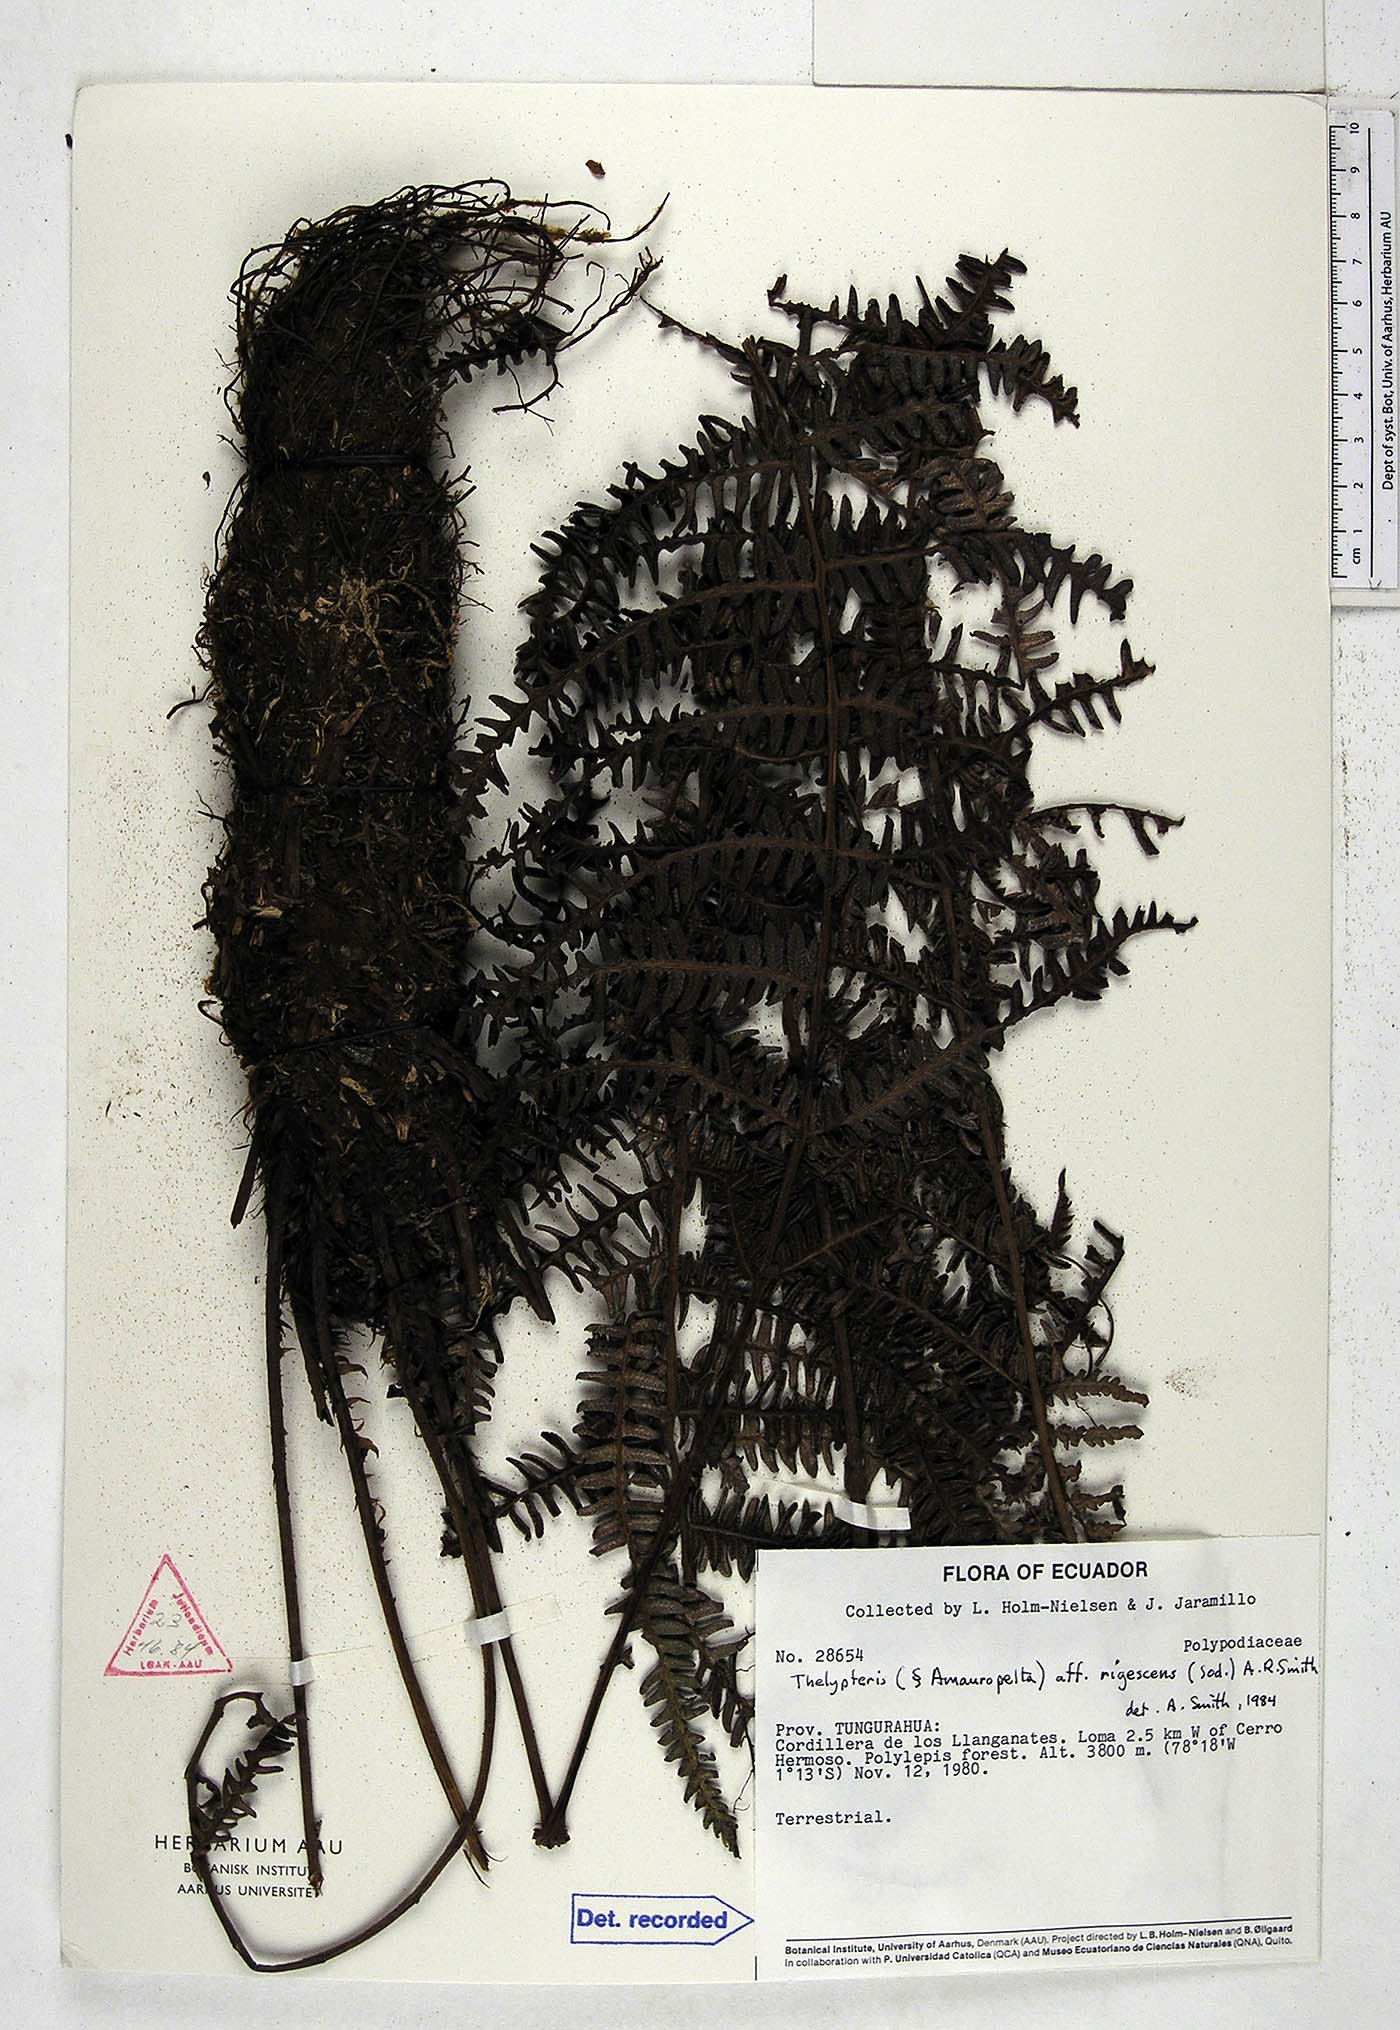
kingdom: Plantae
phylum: Tracheophyta
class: Polypodiopsida
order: Polypodiales
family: Thelypteridaceae
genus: Amauropelta
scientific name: Amauropelta rigescens
